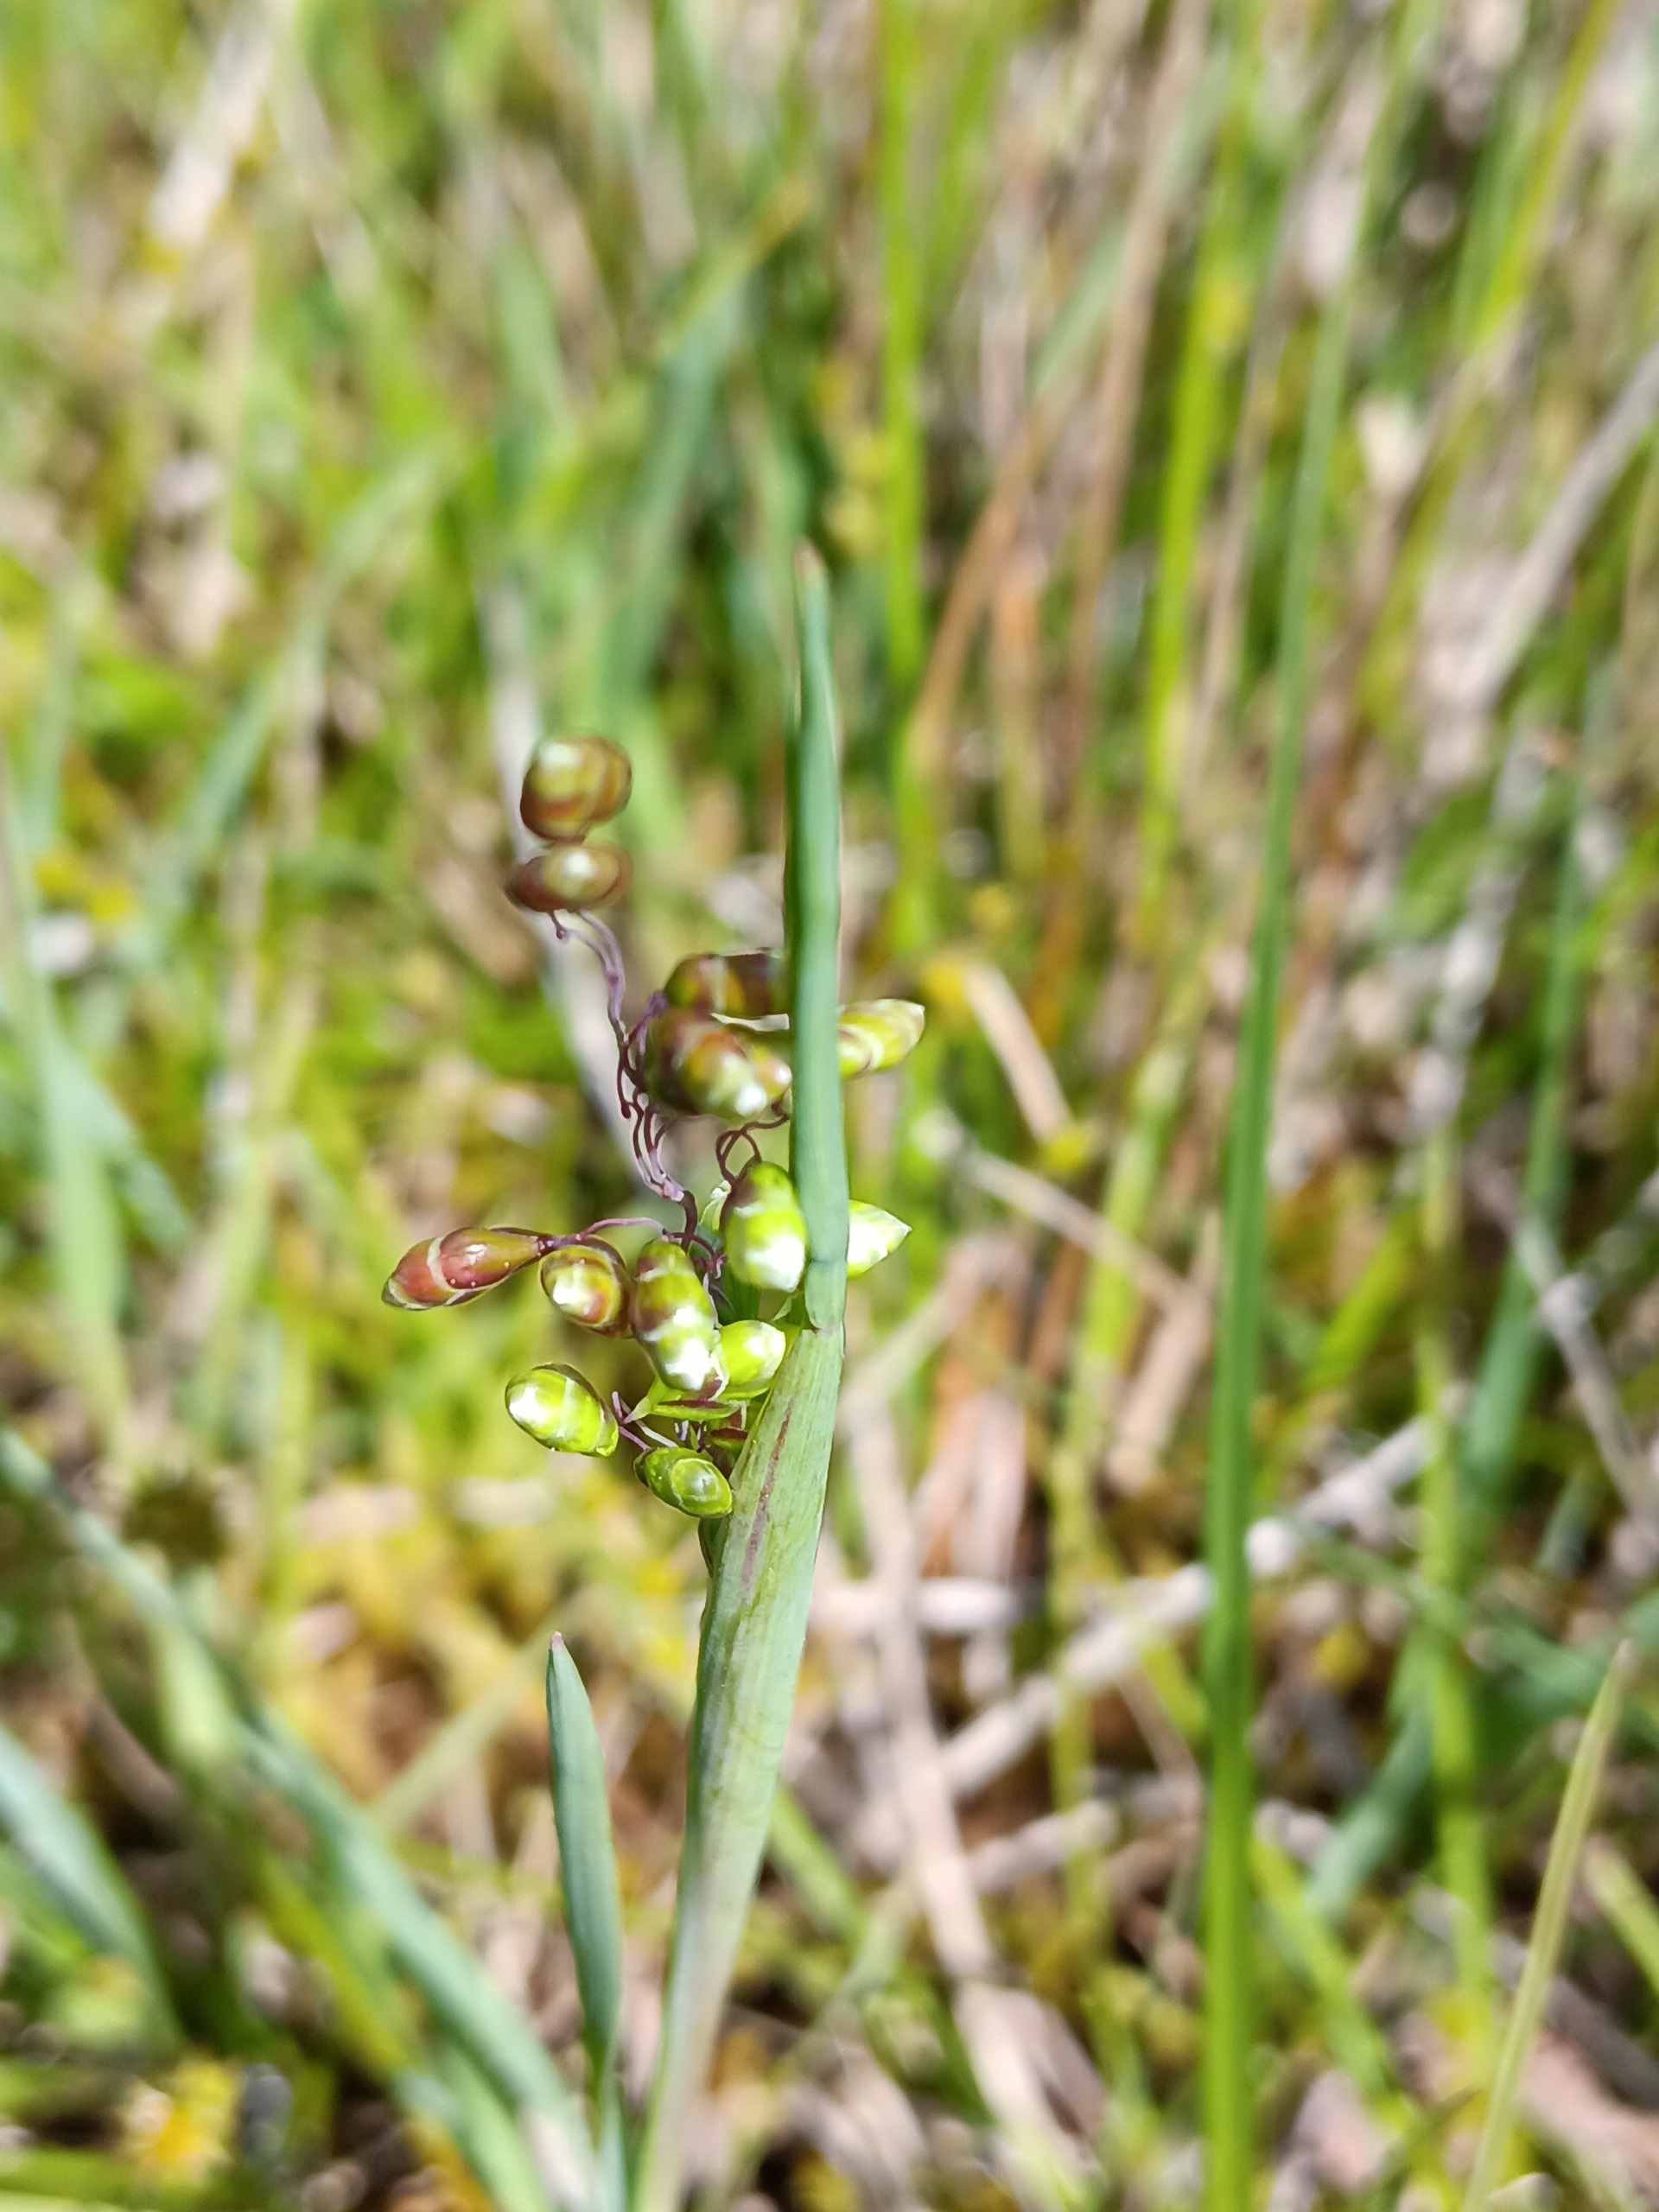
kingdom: Plantae
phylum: Tracheophyta
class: Liliopsida
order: Poales
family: Poaceae
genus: Briza
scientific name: Briza media
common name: Hjertegræs
